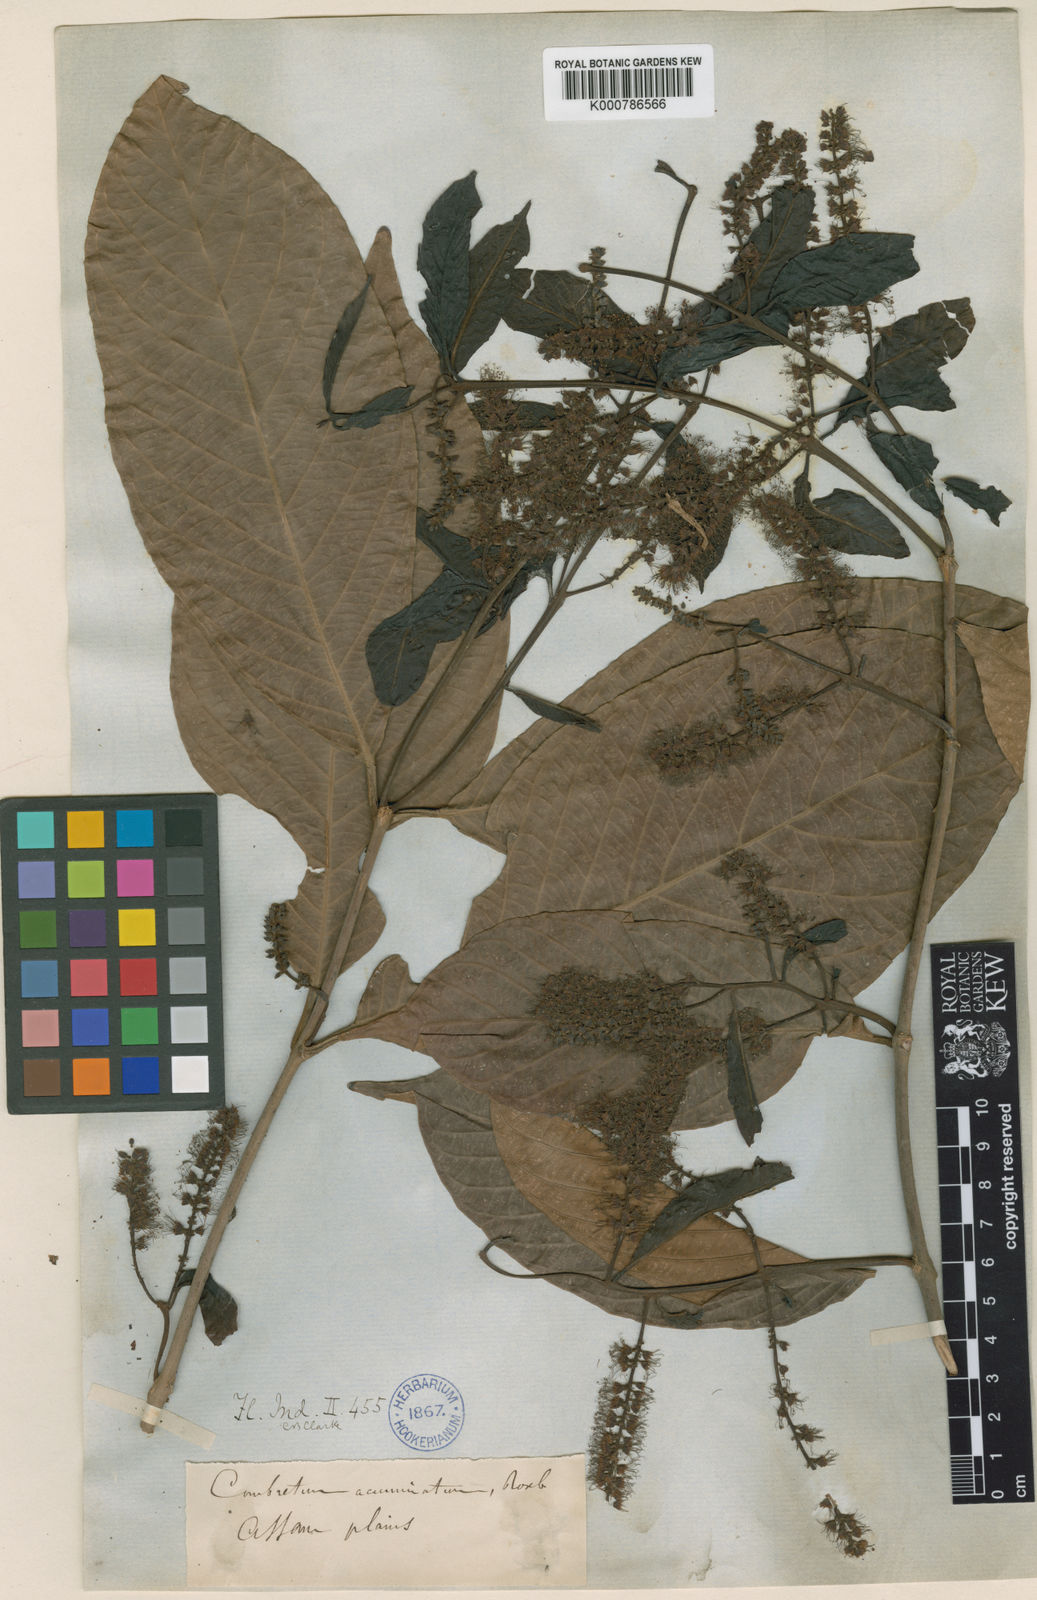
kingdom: Plantae
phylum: Tracheophyta
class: Magnoliopsida
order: Myrtales
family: Combretaceae
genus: Combretum
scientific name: Combretum acuminatum
